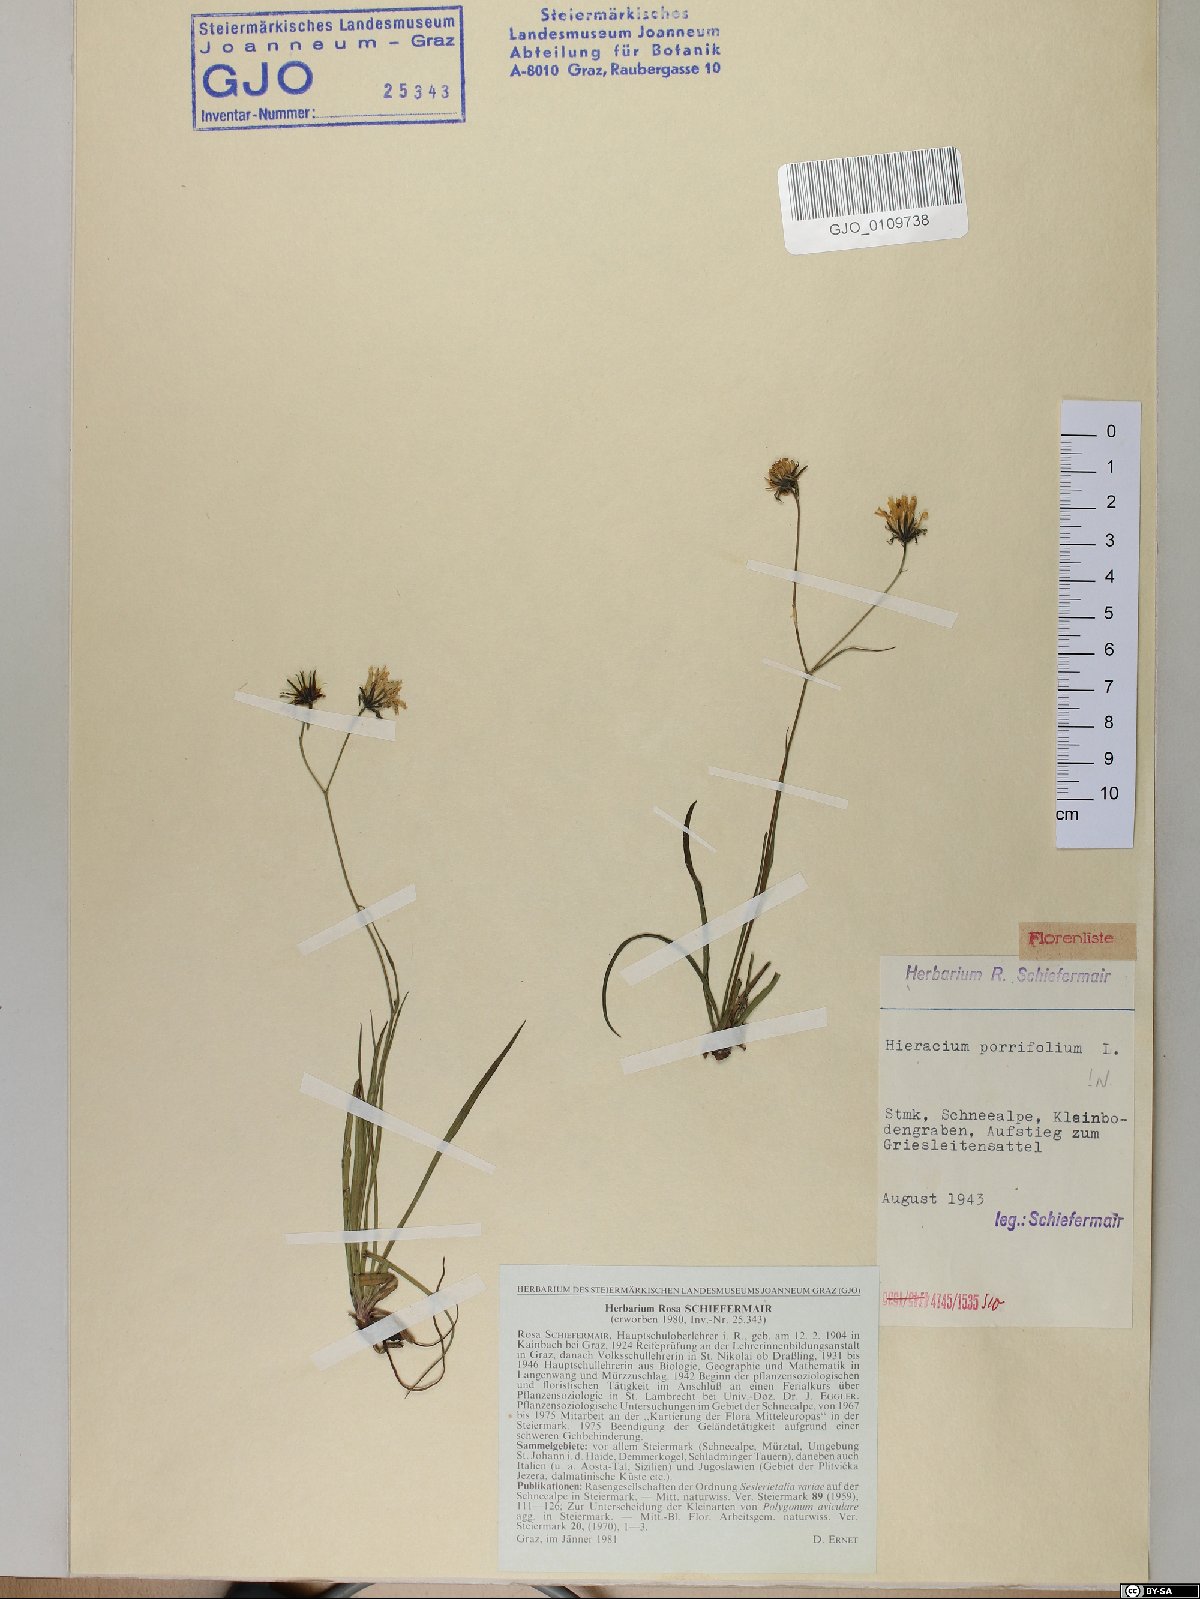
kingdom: Plantae
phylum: Tracheophyta
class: Magnoliopsida
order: Asterales
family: Asteraceae
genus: Hieracium
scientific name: Hieracium porrifolium
